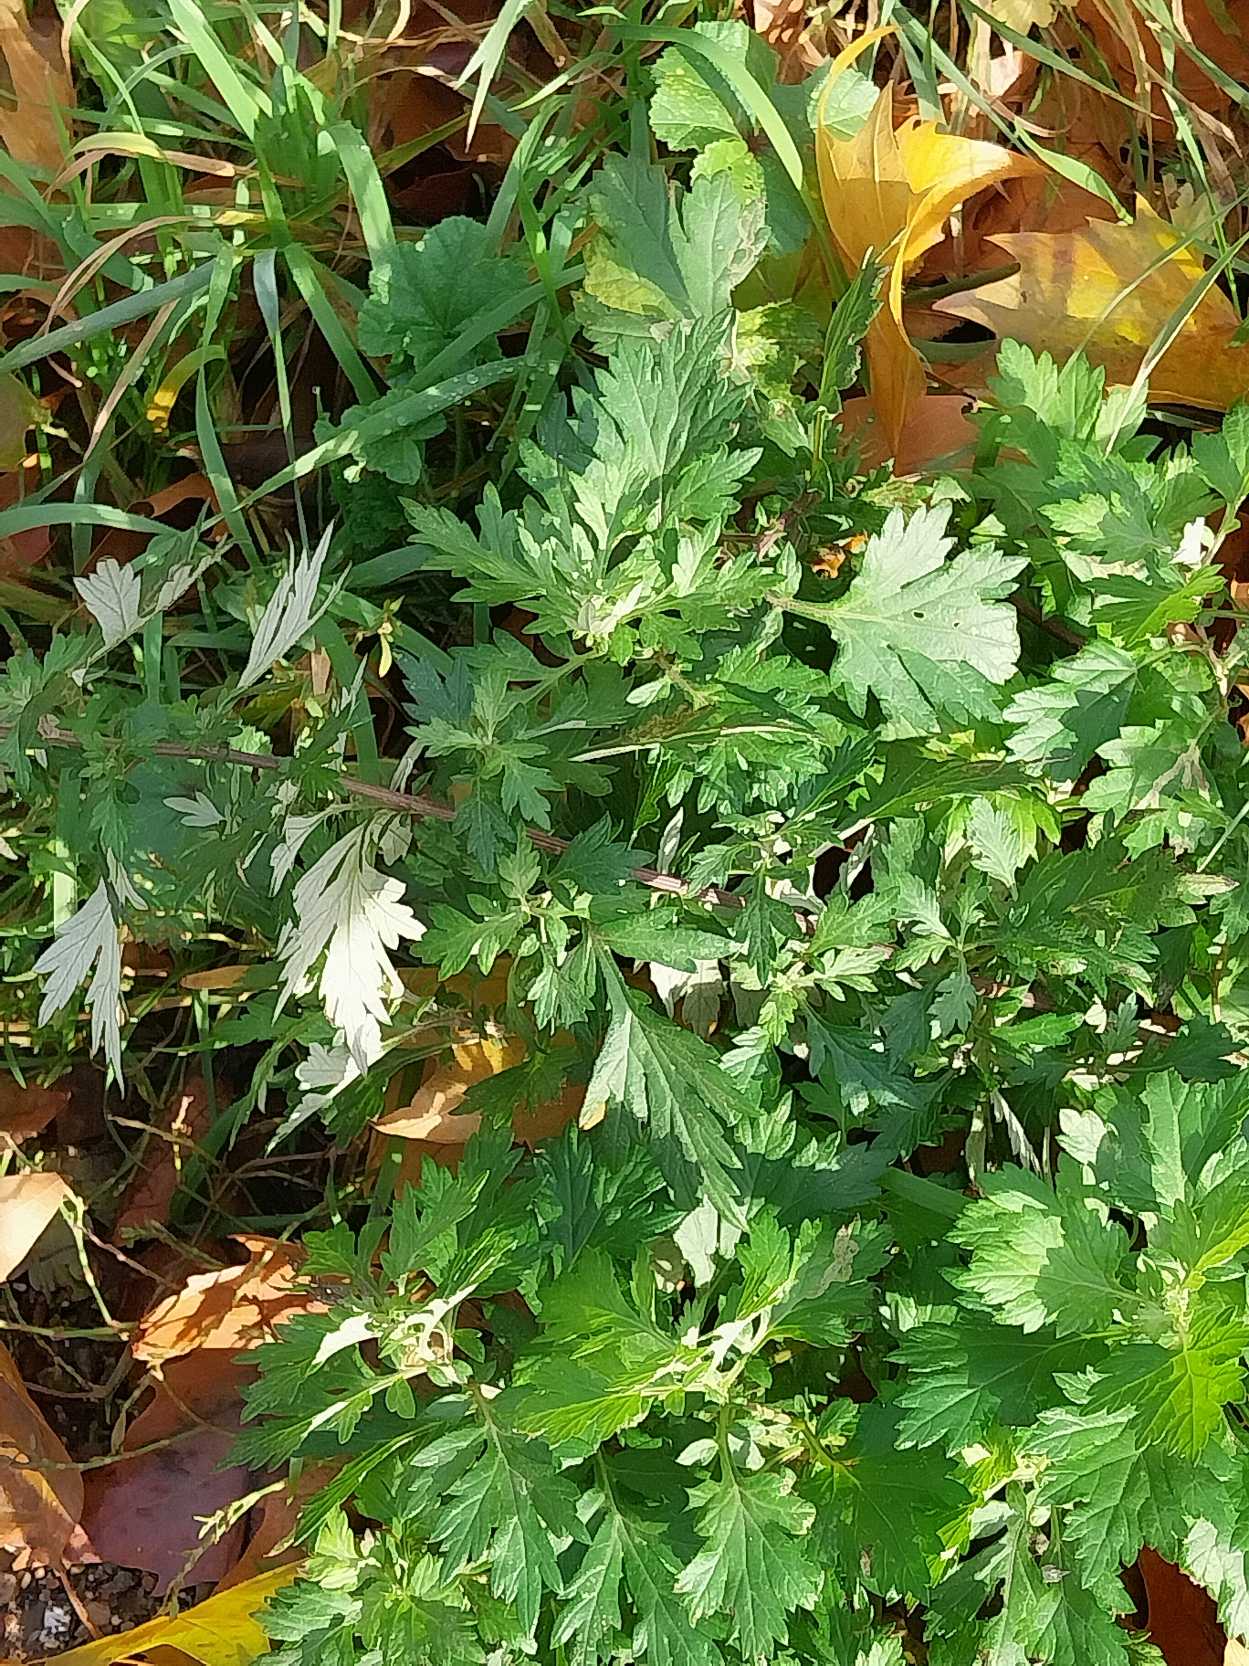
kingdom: Plantae
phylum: Tracheophyta
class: Magnoliopsida
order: Asterales
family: Asteraceae
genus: Artemisia
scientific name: Artemisia vulgaris
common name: Grå-bynke
